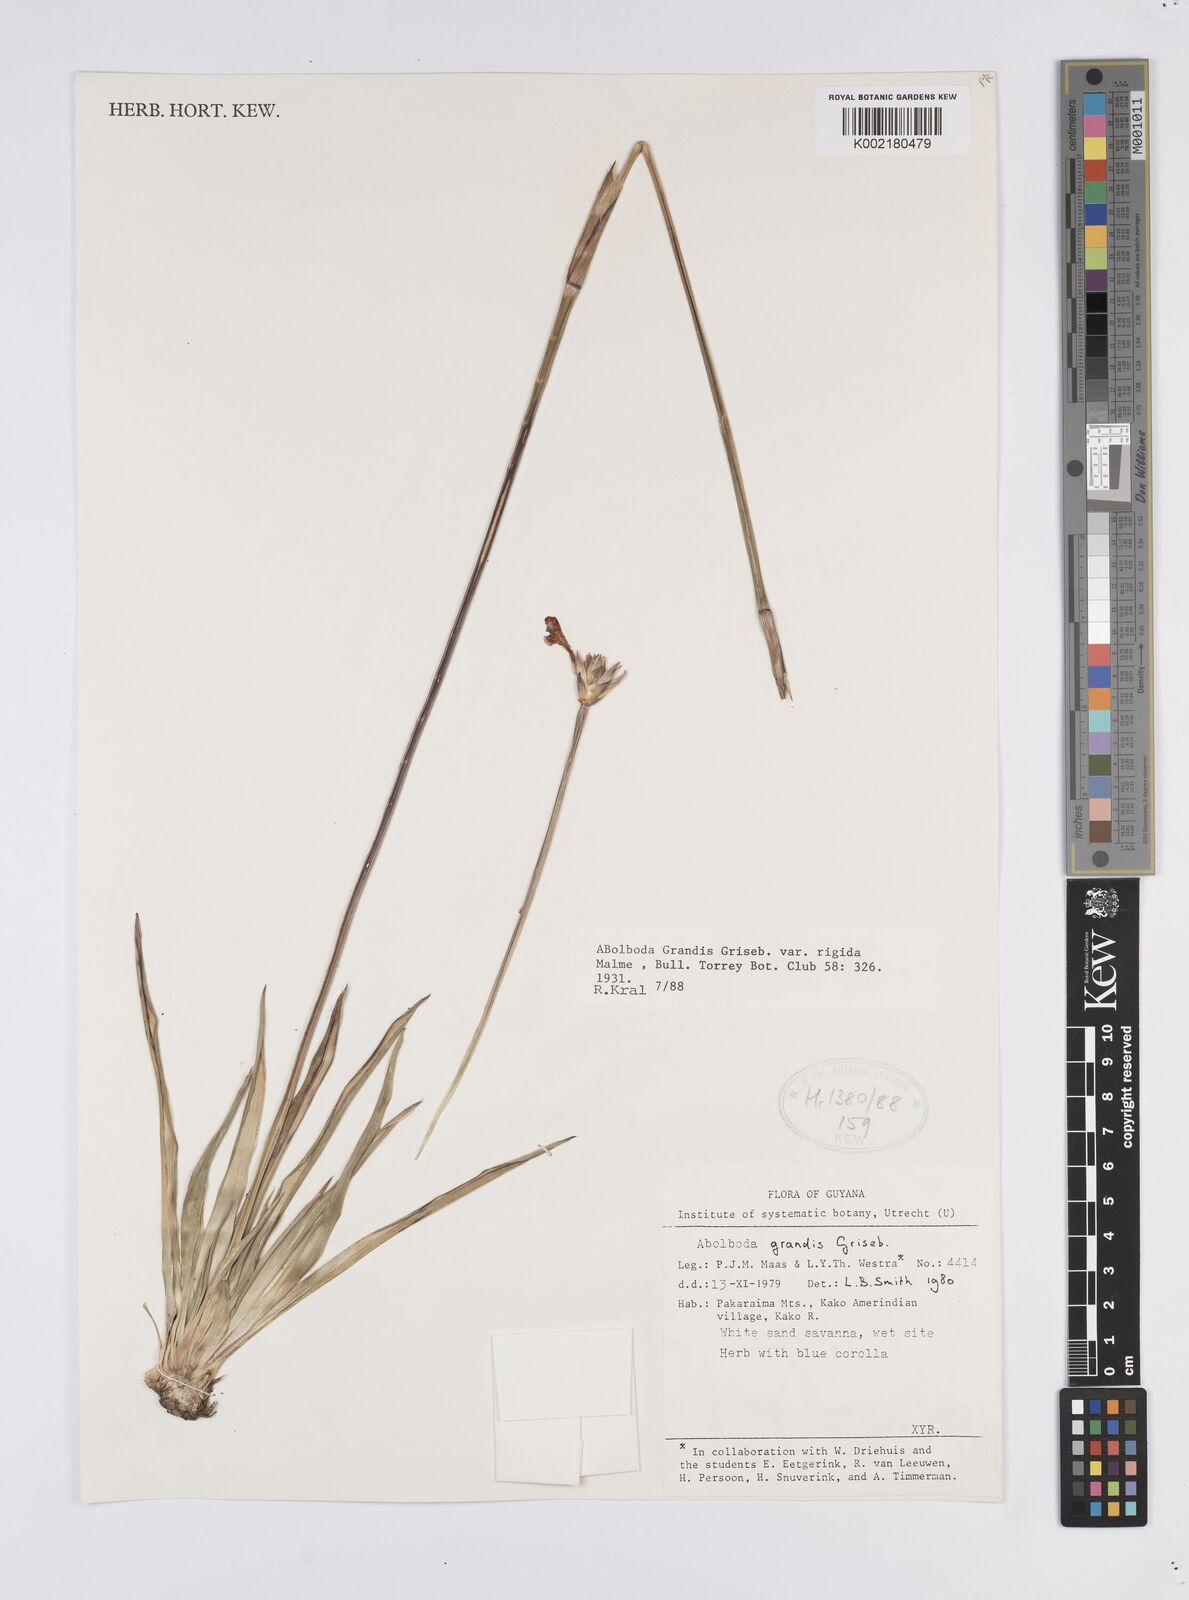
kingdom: Plantae
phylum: Tracheophyta
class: Liliopsida
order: Poales
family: Xyridaceae
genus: Abolboda
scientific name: Abolboda grandis
